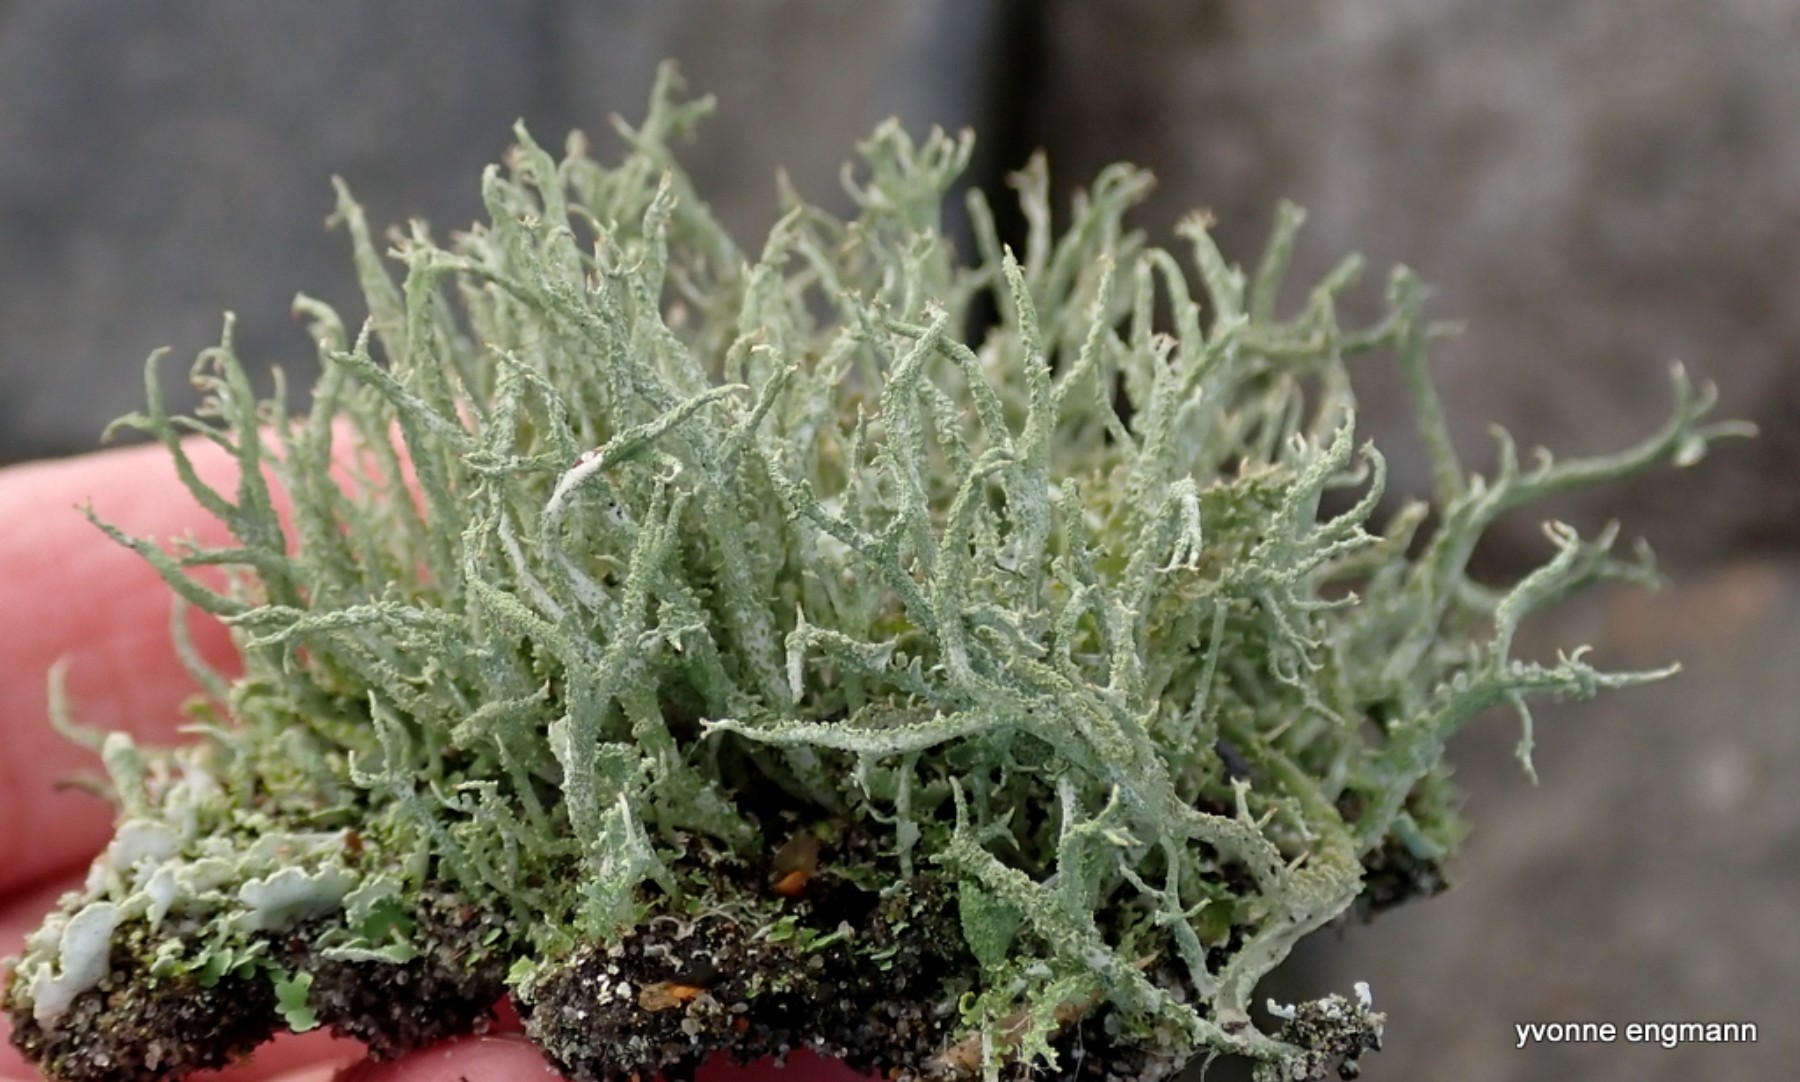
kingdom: Fungi
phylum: Ascomycota
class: Lecanoromycetes
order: Lecanorales
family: Cladoniaceae
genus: Cladonia
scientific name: Cladonia scabriuscula
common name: ru bægerlav
